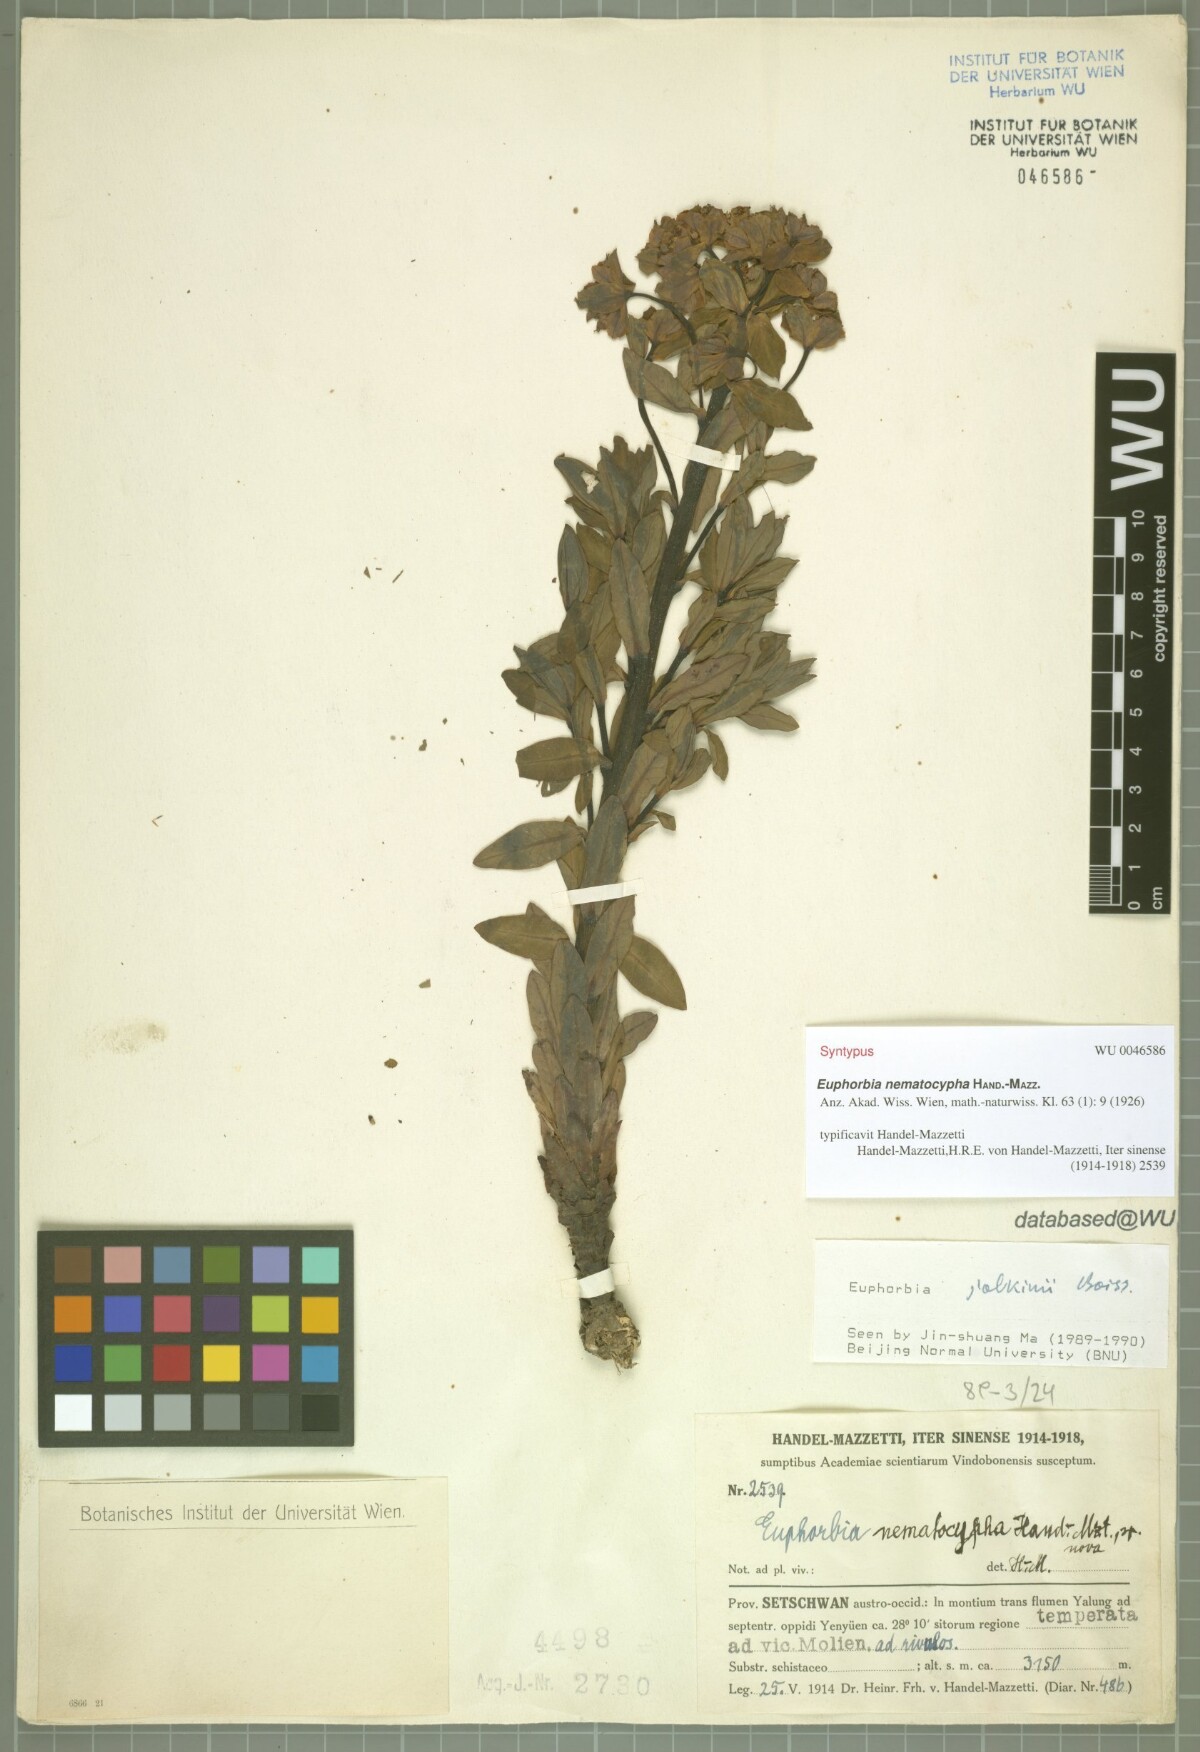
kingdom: Plantae
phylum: Tracheophyta
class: Magnoliopsida
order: Malpighiales
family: Euphorbiaceae
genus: Euphorbia
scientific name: Euphorbia jolkinii
